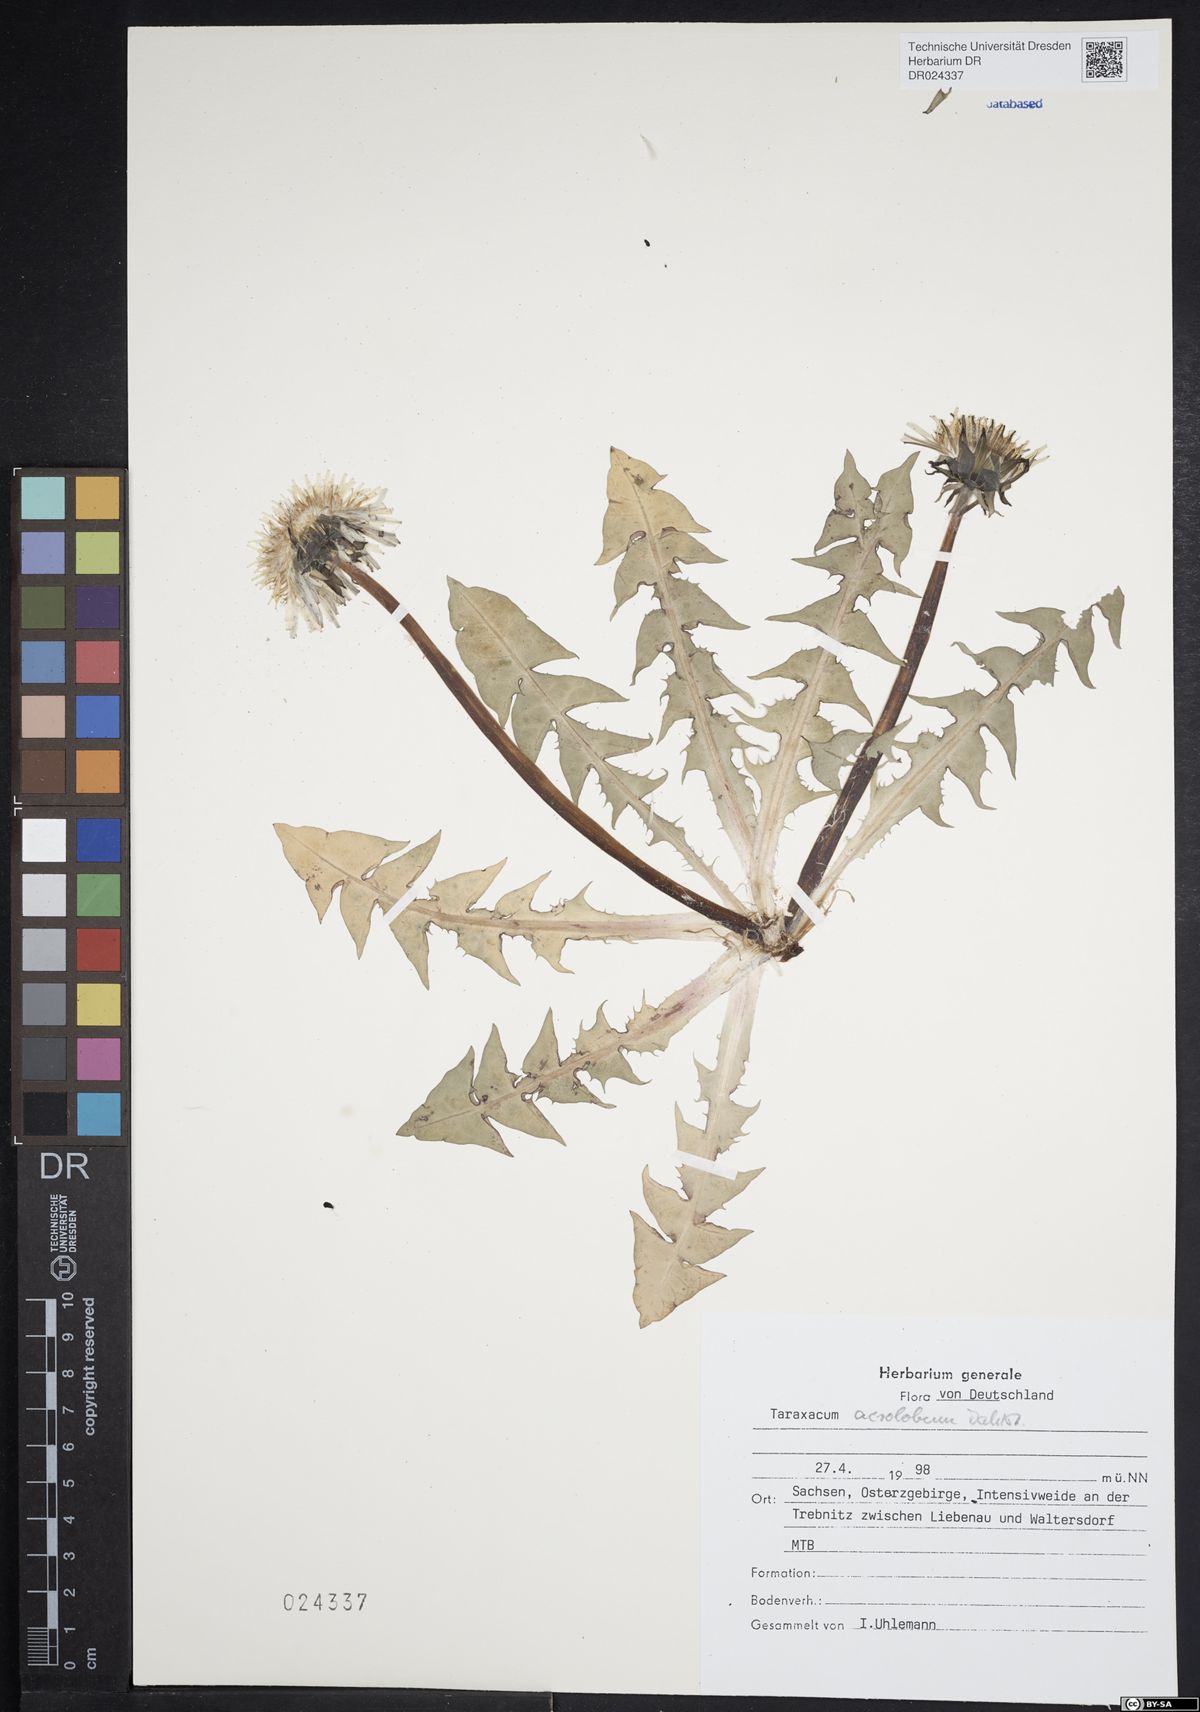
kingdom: Plantae
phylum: Tracheophyta
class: Magnoliopsida
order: Asterales
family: Asteraceae
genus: Taraxacum
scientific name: Taraxacum acrolobum
